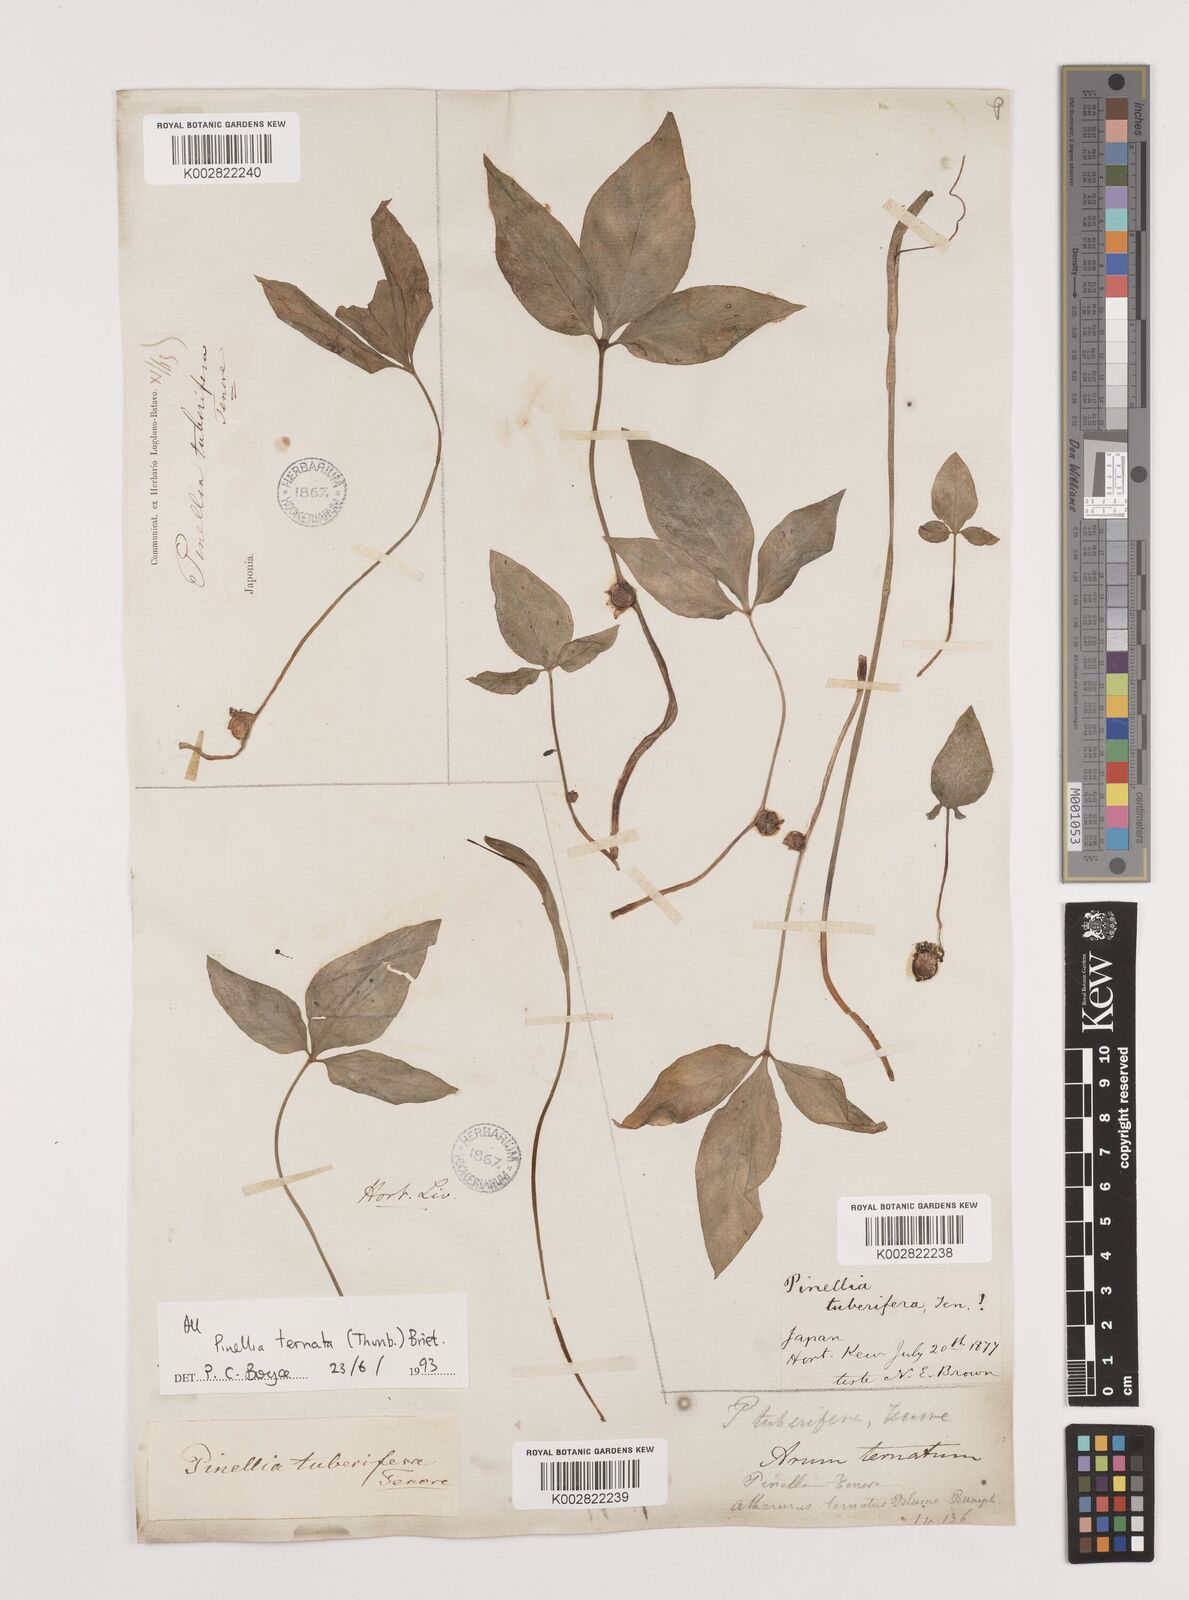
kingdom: Plantae
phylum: Tracheophyta
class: Liliopsida
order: Alismatales
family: Araceae
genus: Pinellia
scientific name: Pinellia ternata
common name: Pinellia
